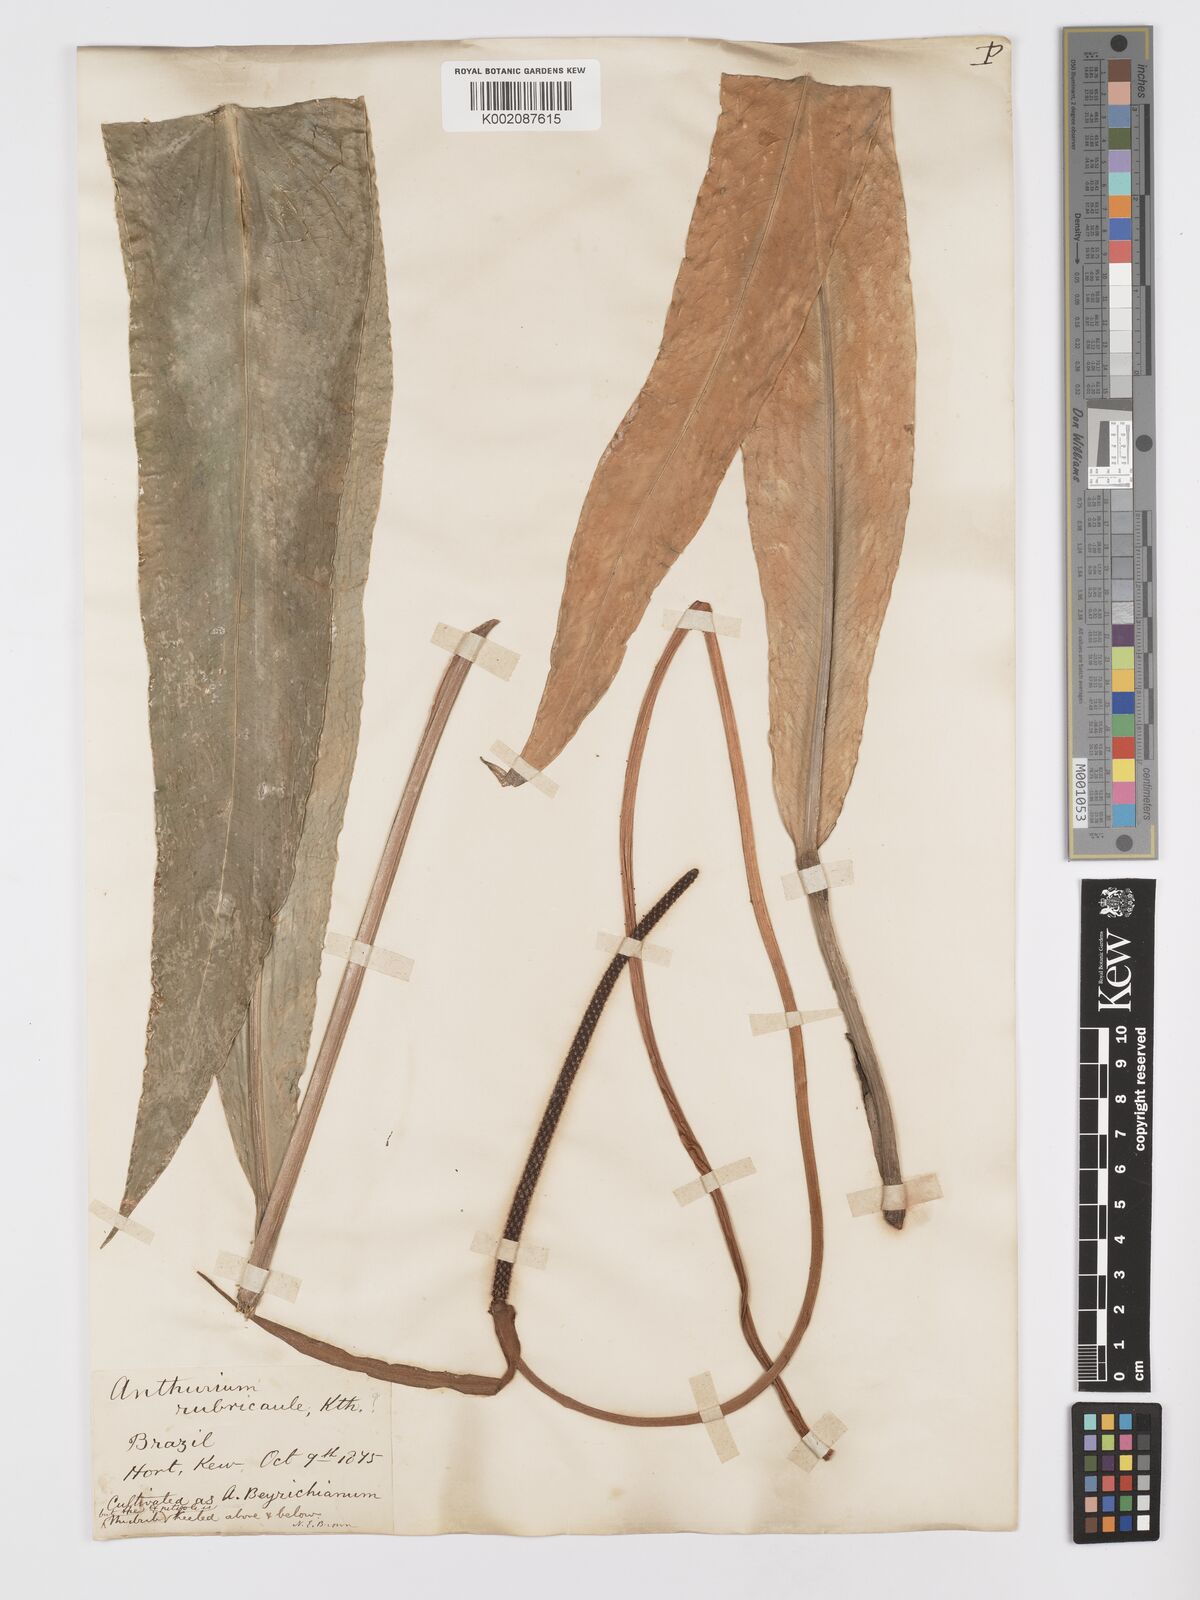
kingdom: Plantae
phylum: Tracheophyta
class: Liliopsida
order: Alismatales
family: Araceae
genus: Anthurium
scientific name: Anthurium intermedium
